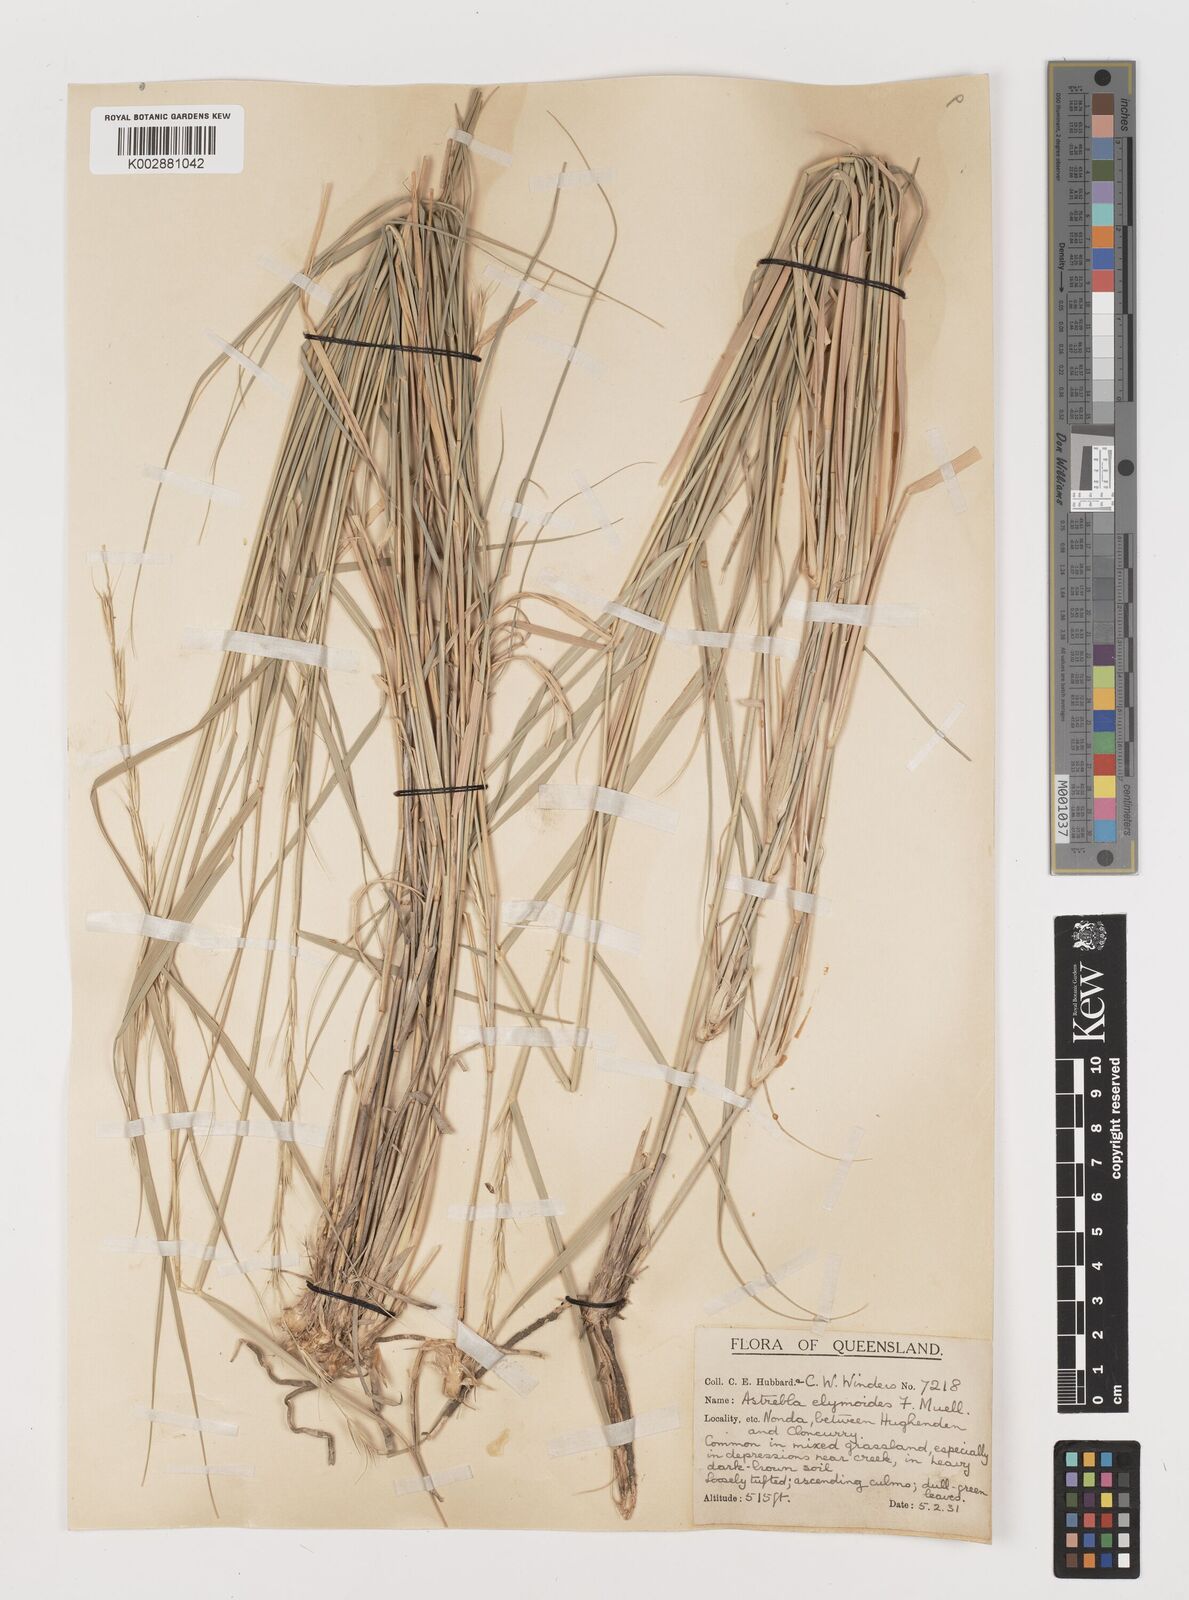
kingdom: Plantae
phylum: Tracheophyta
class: Liliopsida
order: Poales
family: Poaceae
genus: Astrebla
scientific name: Astrebla elymoides
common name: Hoop mitchell grass
